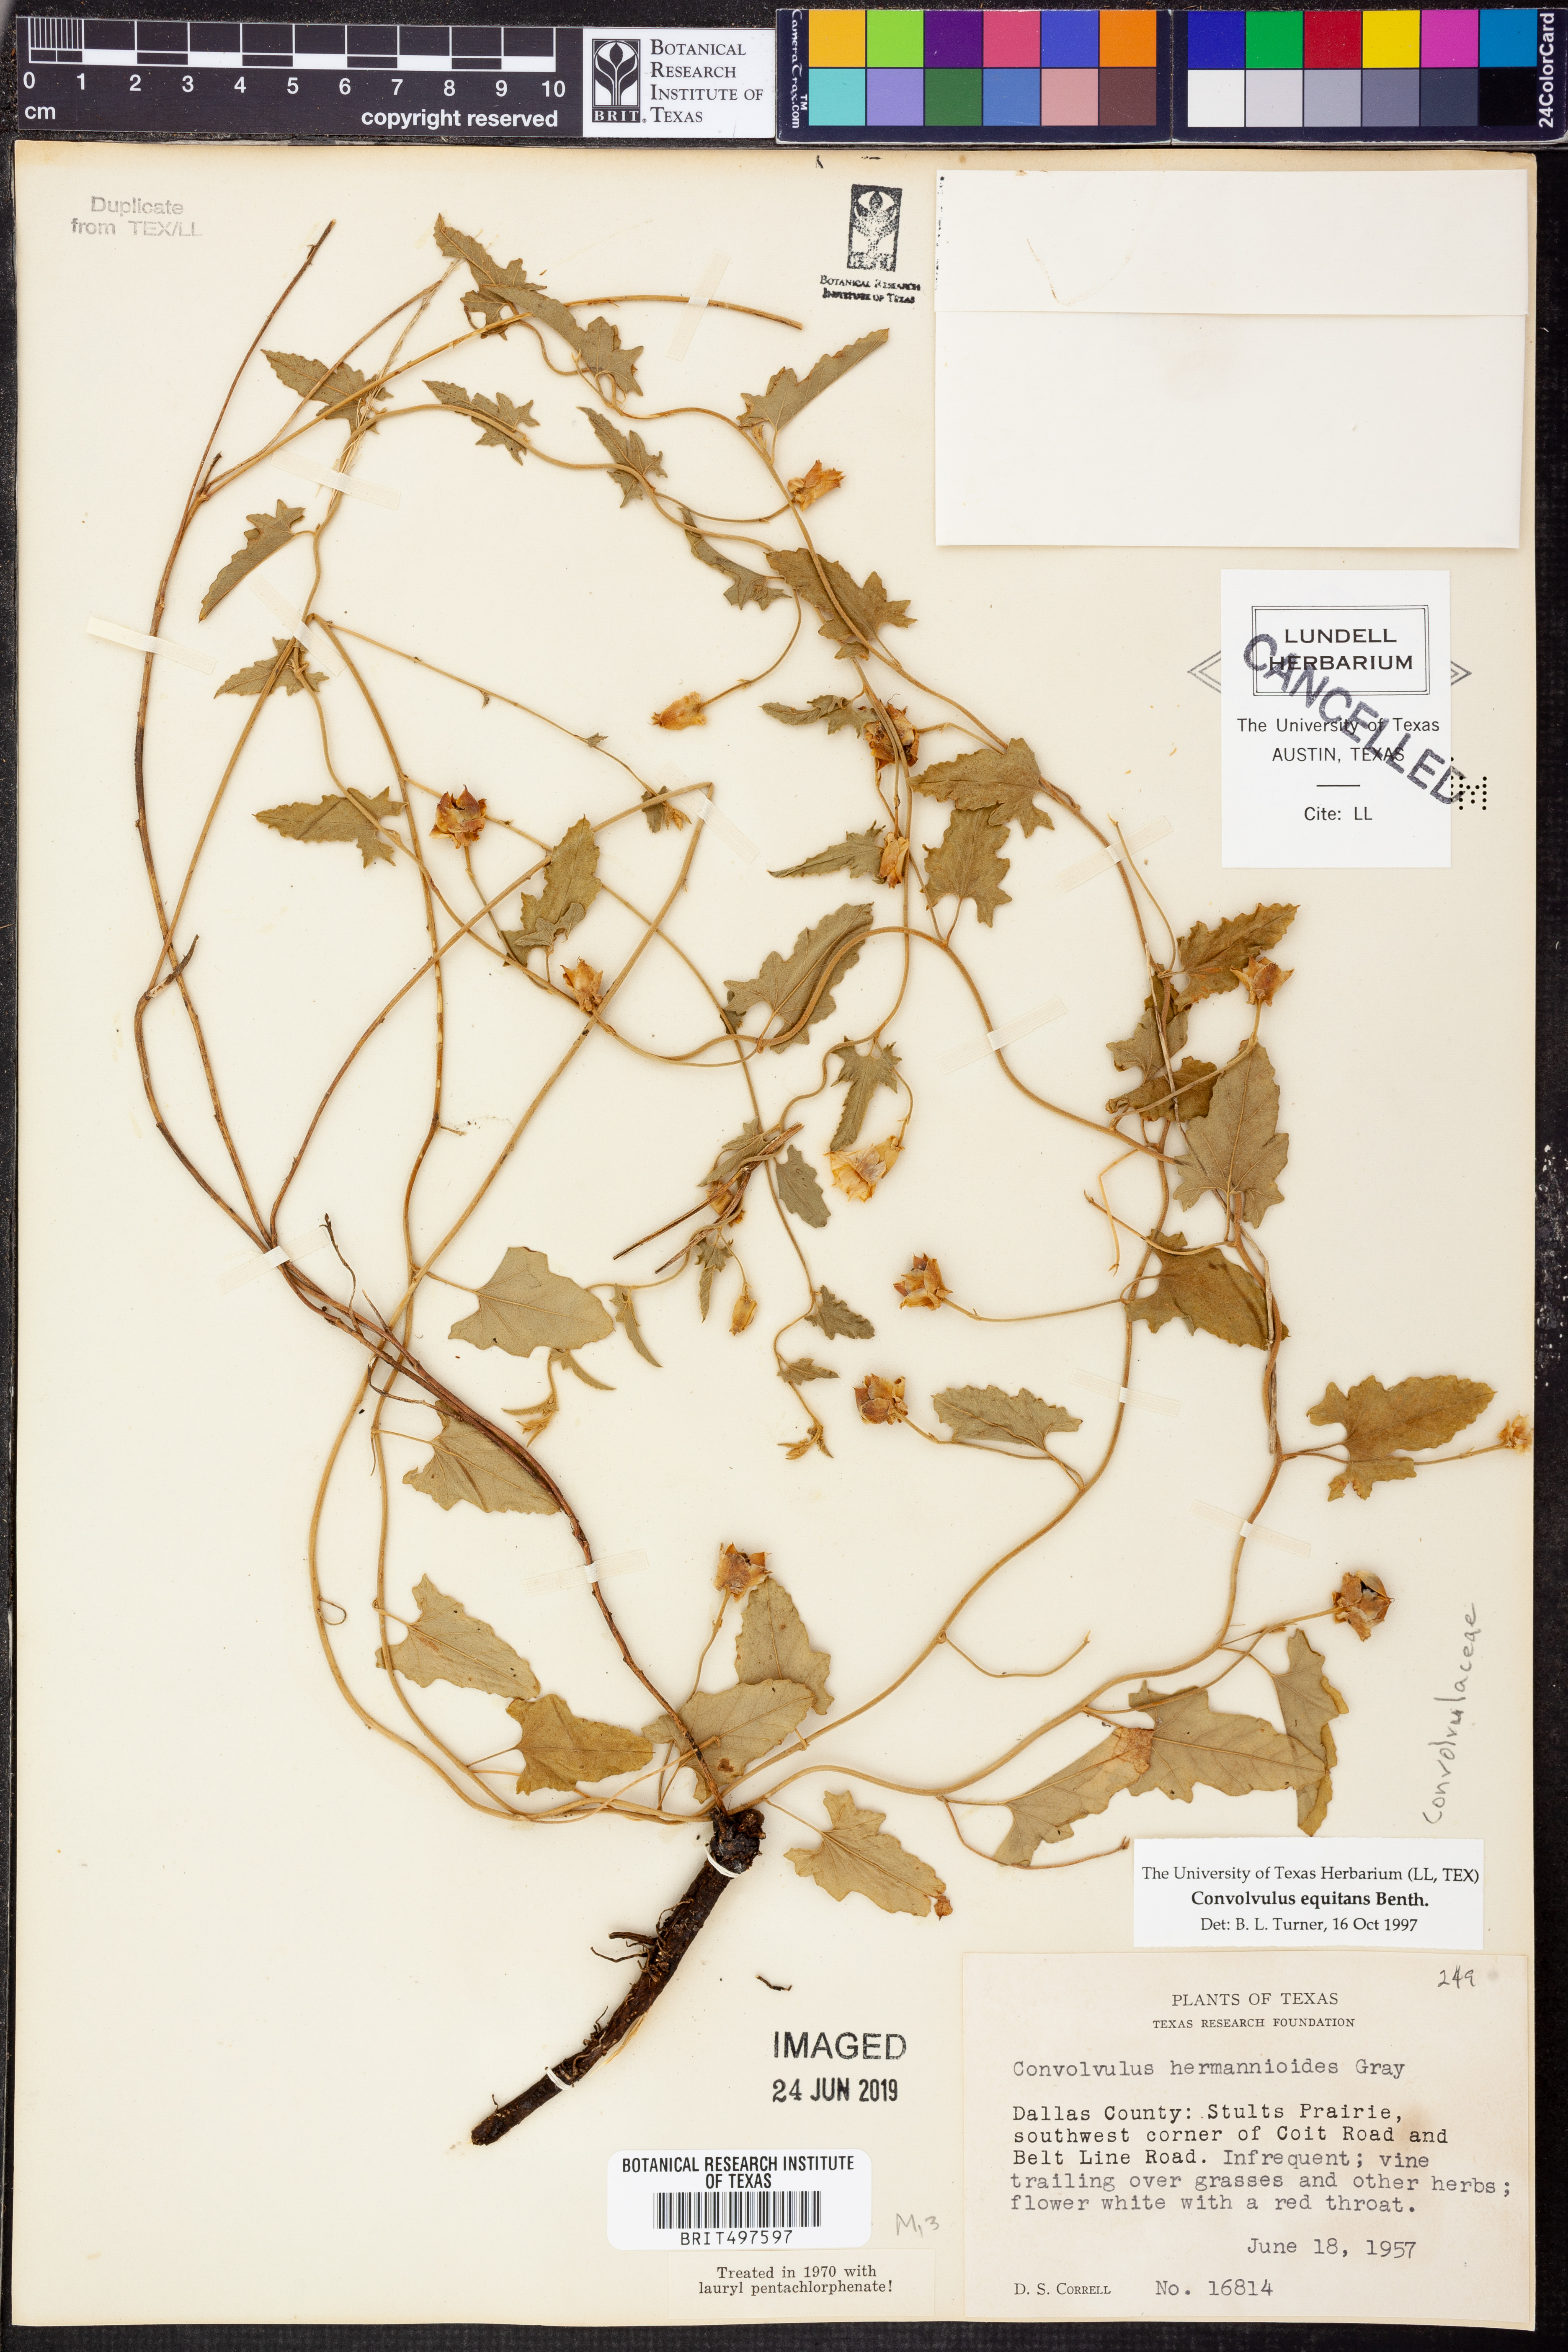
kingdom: Plantae
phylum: Tracheophyta
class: Magnoliopsida
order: Solanales
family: Convolvulaceae
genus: Convolvulus
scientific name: Convolvulus equitans
